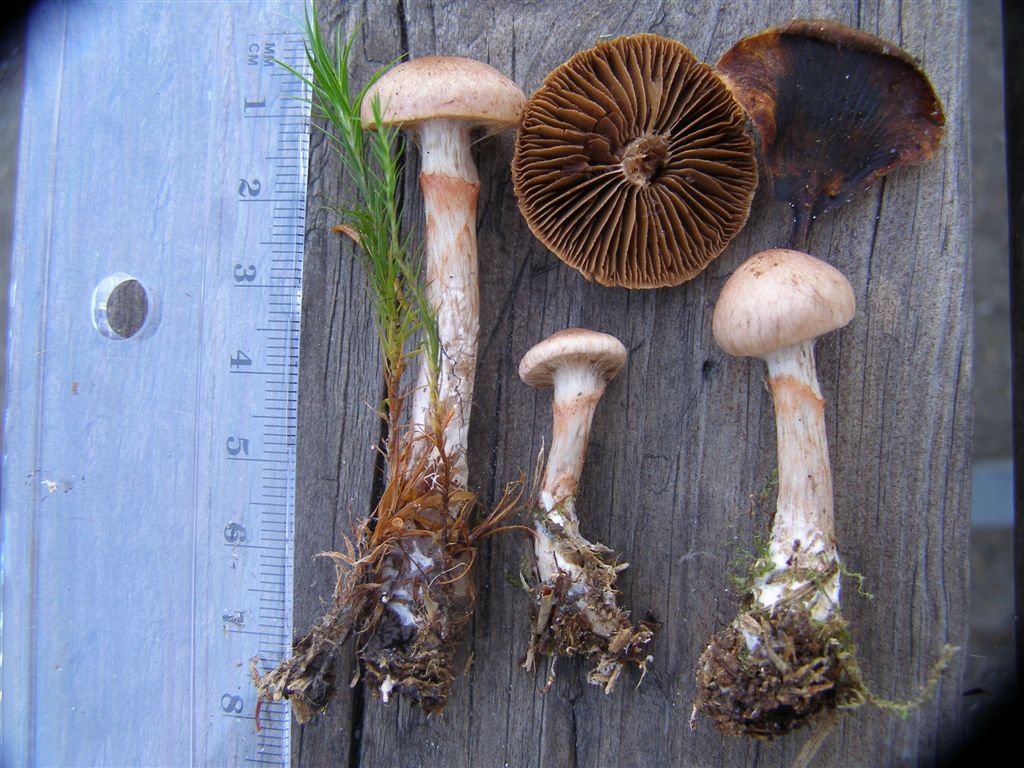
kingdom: Fungi
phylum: Basidiomycota
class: Agaricomycetes
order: Agaricales
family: Cortinariaceae
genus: Cortinarius
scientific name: Cortinarius pinigaudis
